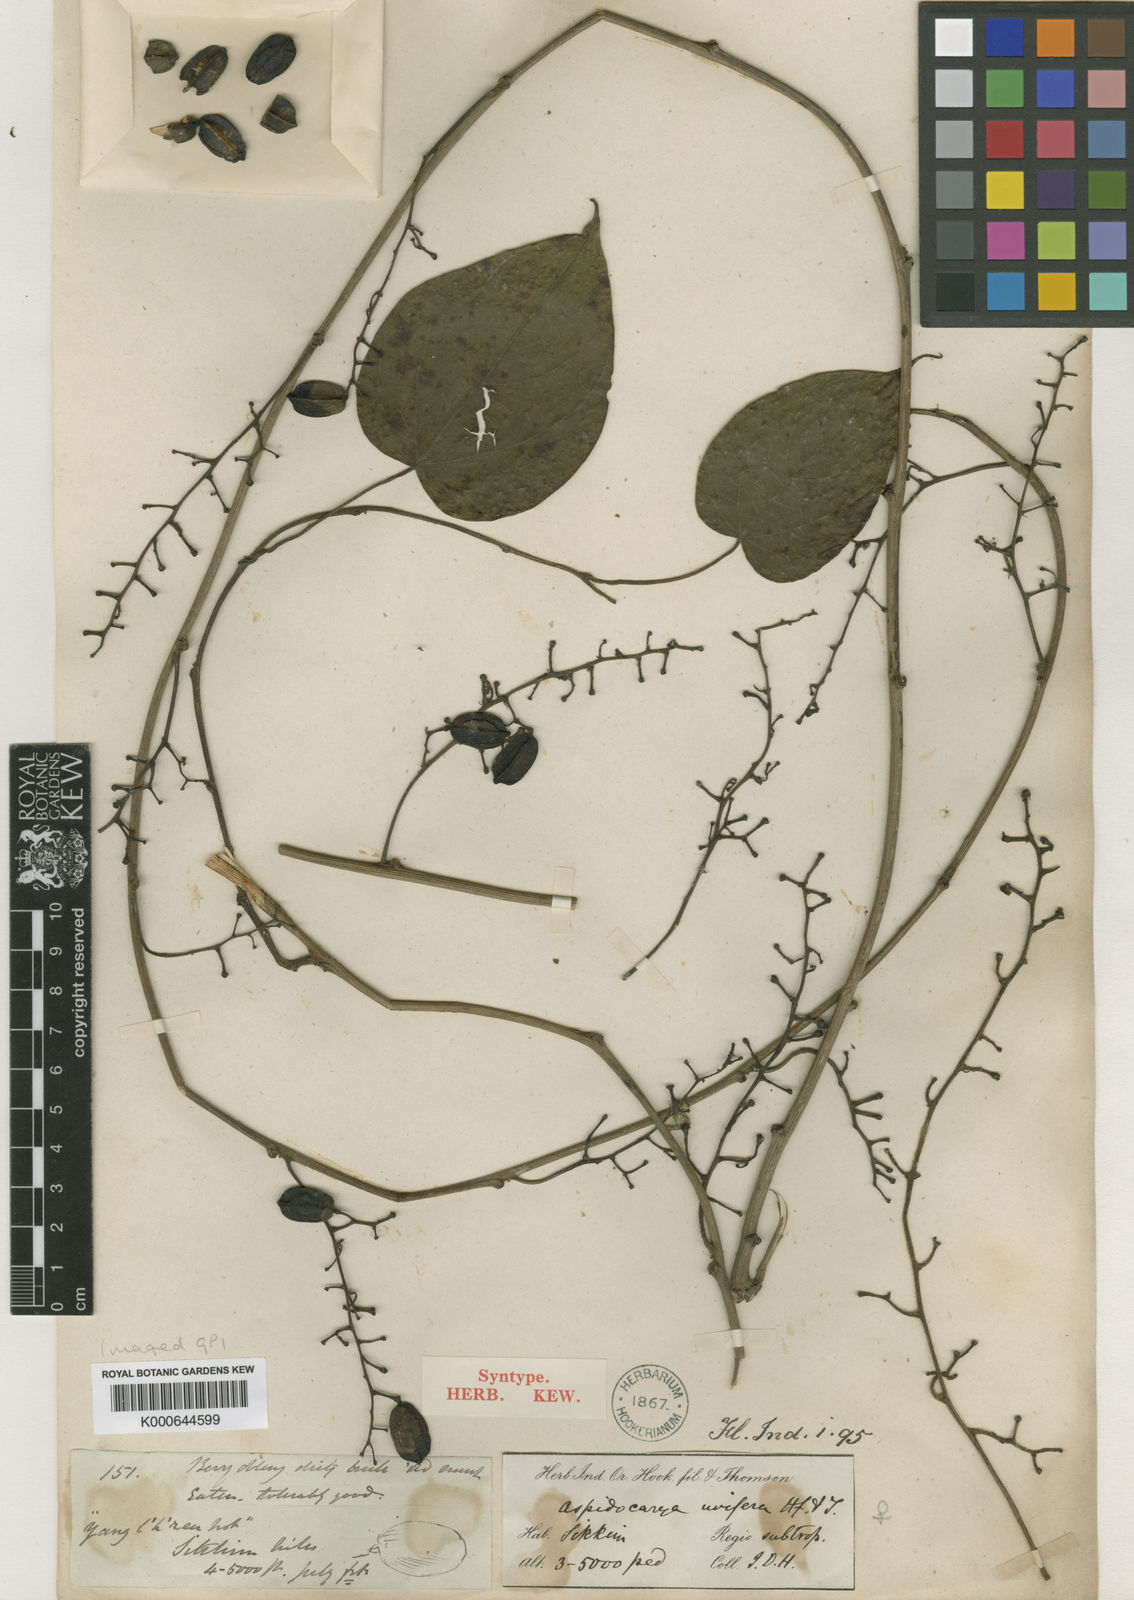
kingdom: Plantae
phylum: Tracheophyta
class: Magnoliopsida
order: Ranunculales
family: Menispermaceae
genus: Aspidocarya
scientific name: Aspidocarya uvifera
